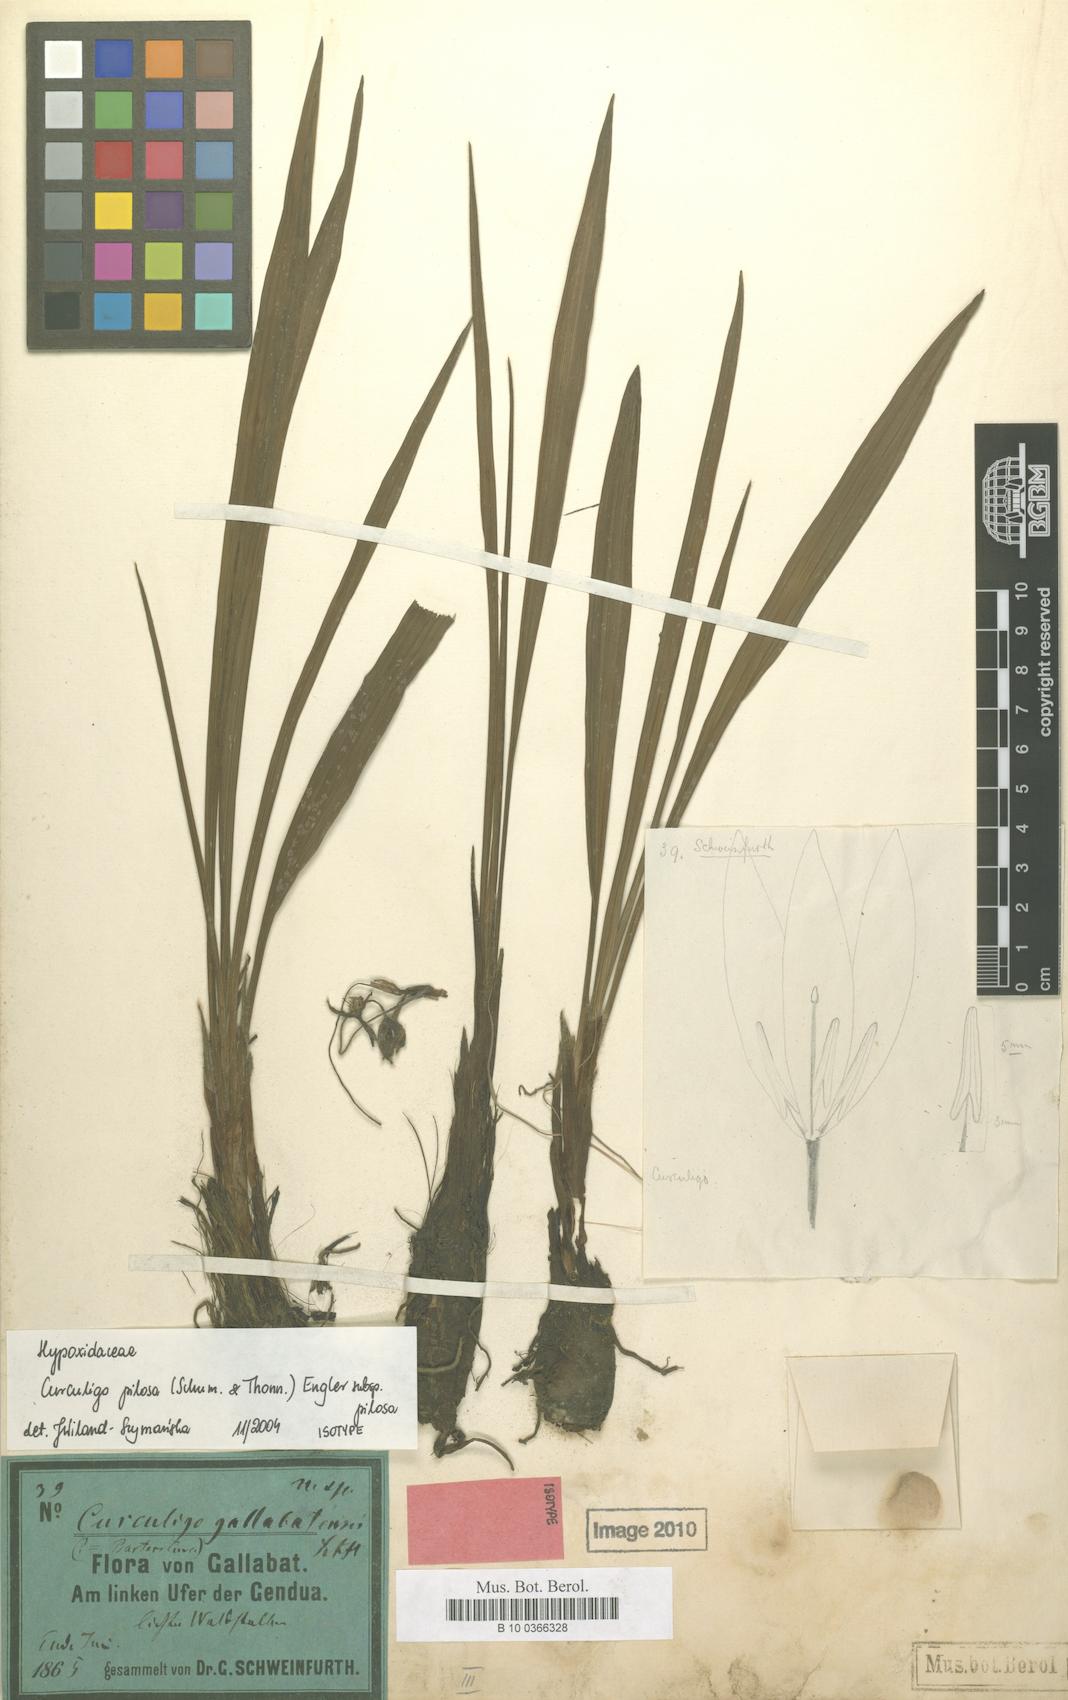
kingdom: Plantae
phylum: Tracheophyta
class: Liliopsida
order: Asparagales
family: Hypoxidaceae
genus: Curculigo
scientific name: Curculigo pilosa
